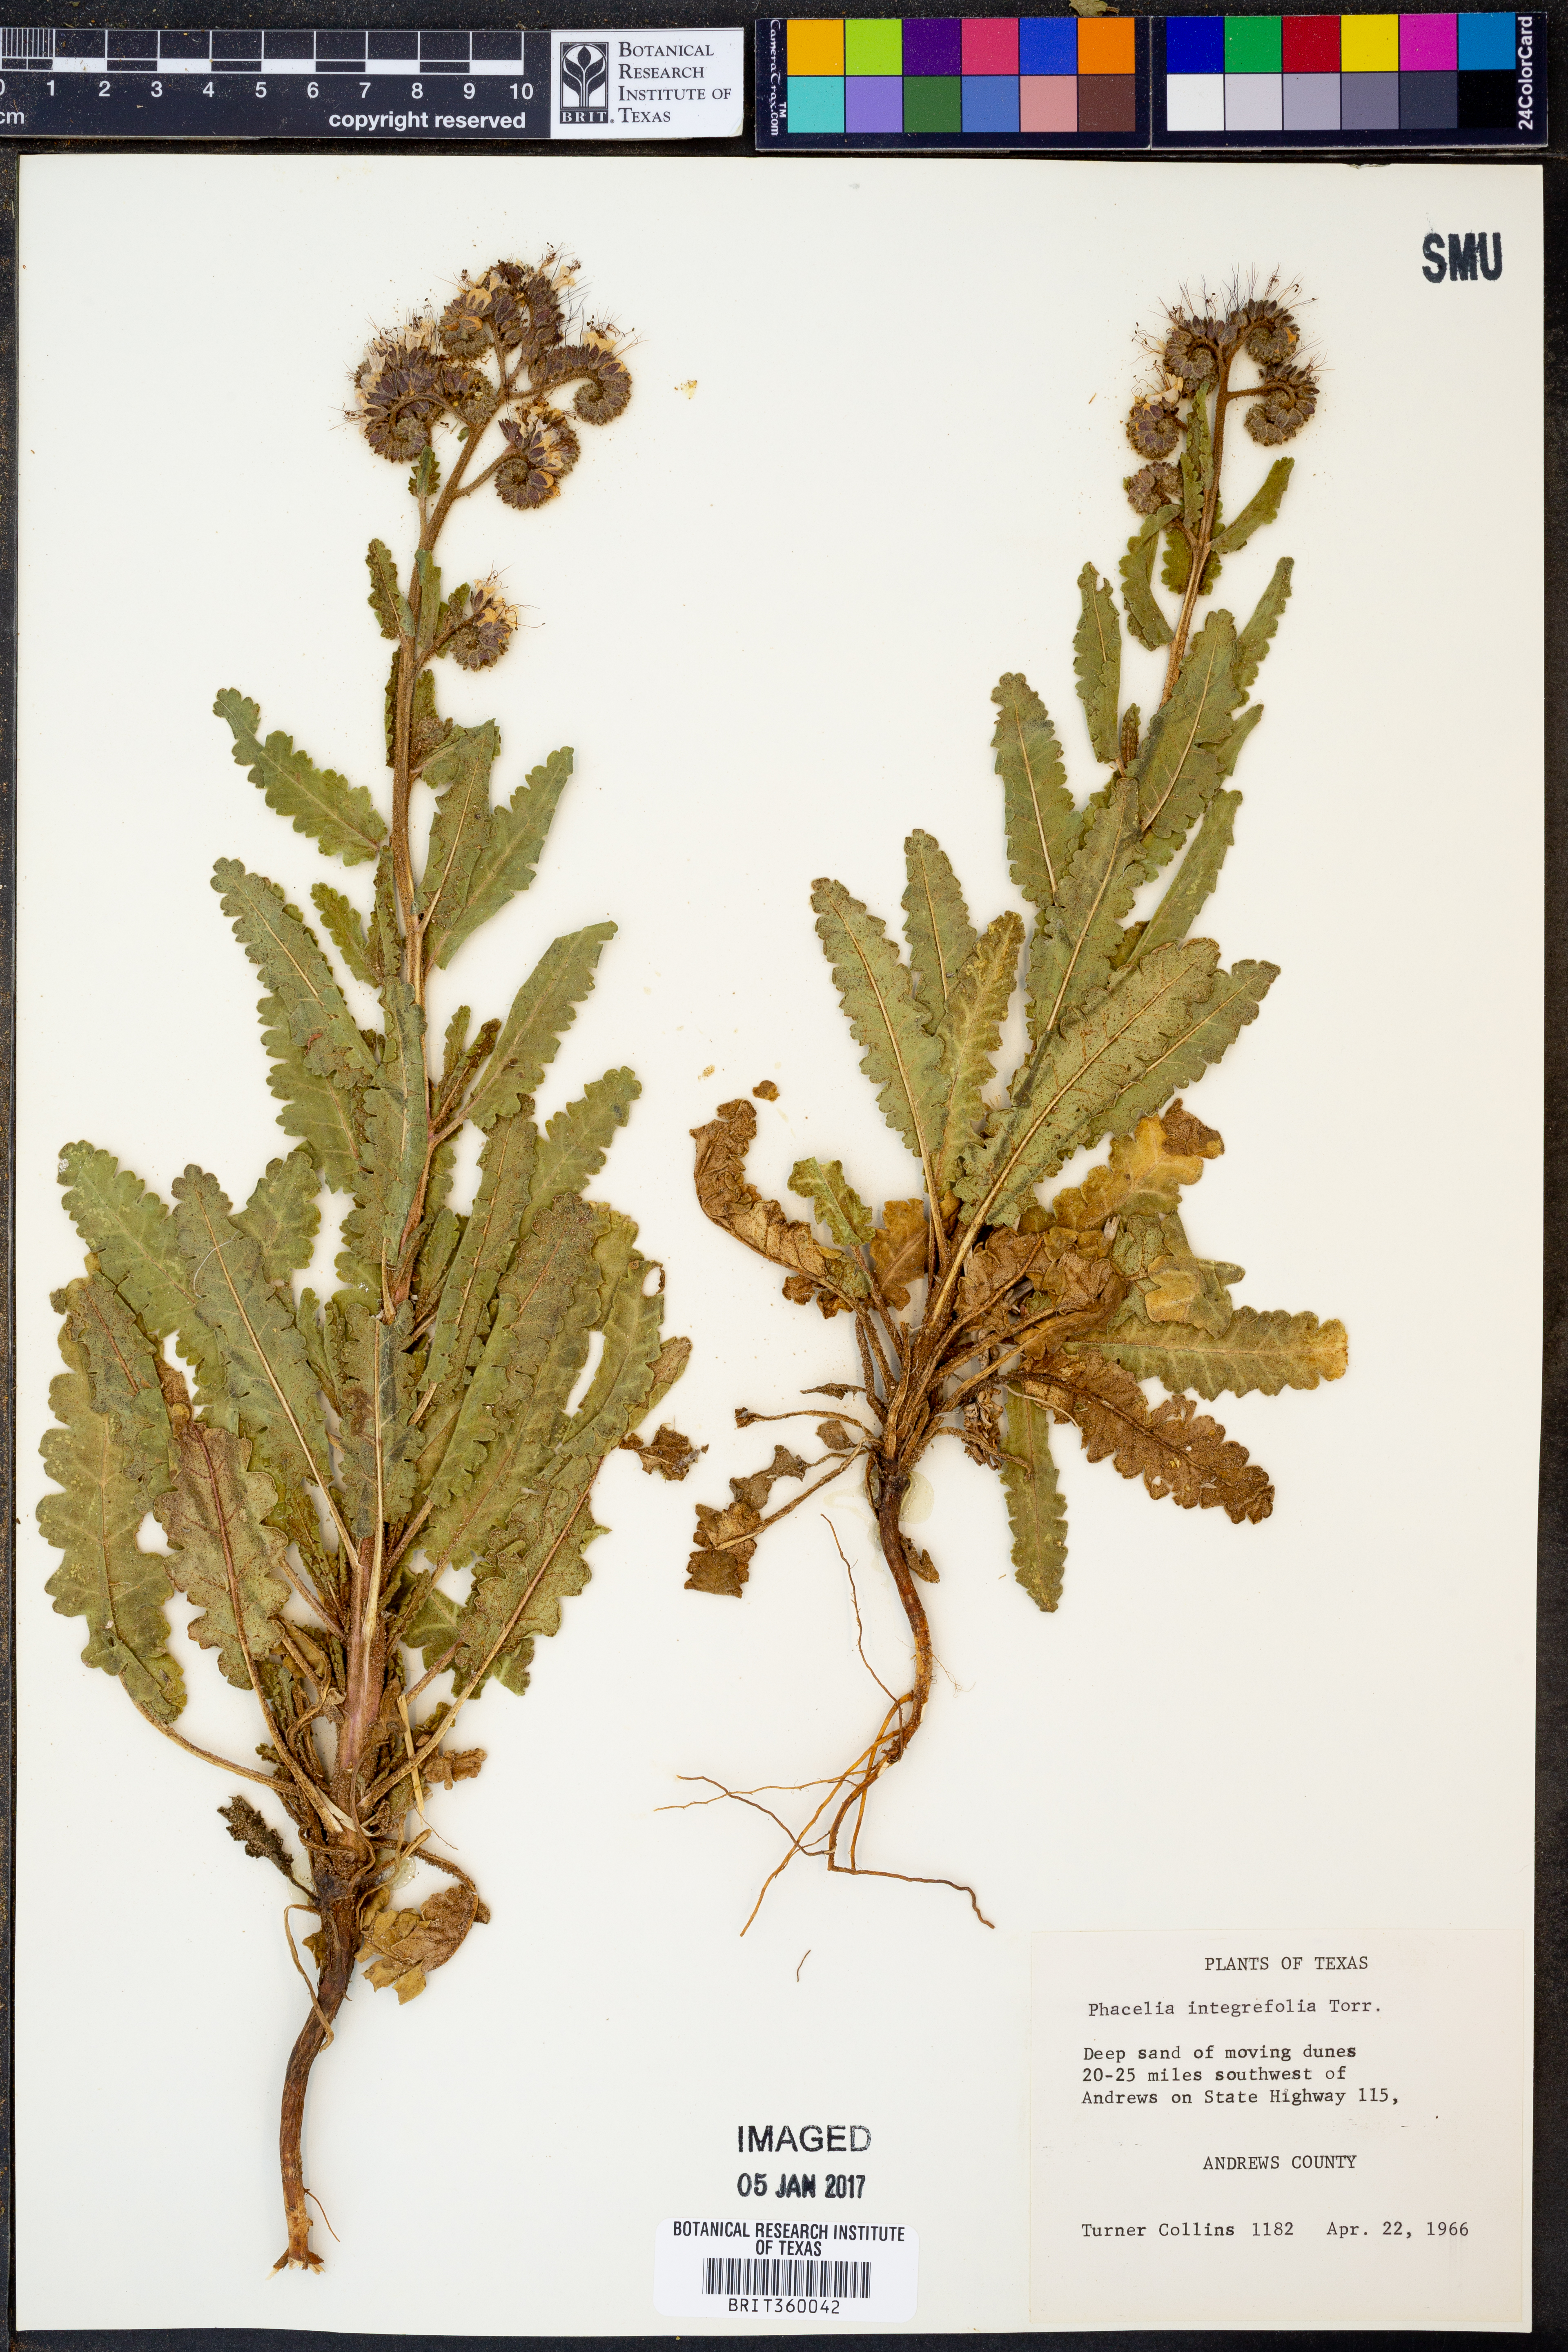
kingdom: Plantae
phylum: Tracheophyta
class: Magnoliopsida
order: Boraginales
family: Hydrophyllaceae
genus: Phacelia
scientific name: Phacelia integrifolia
